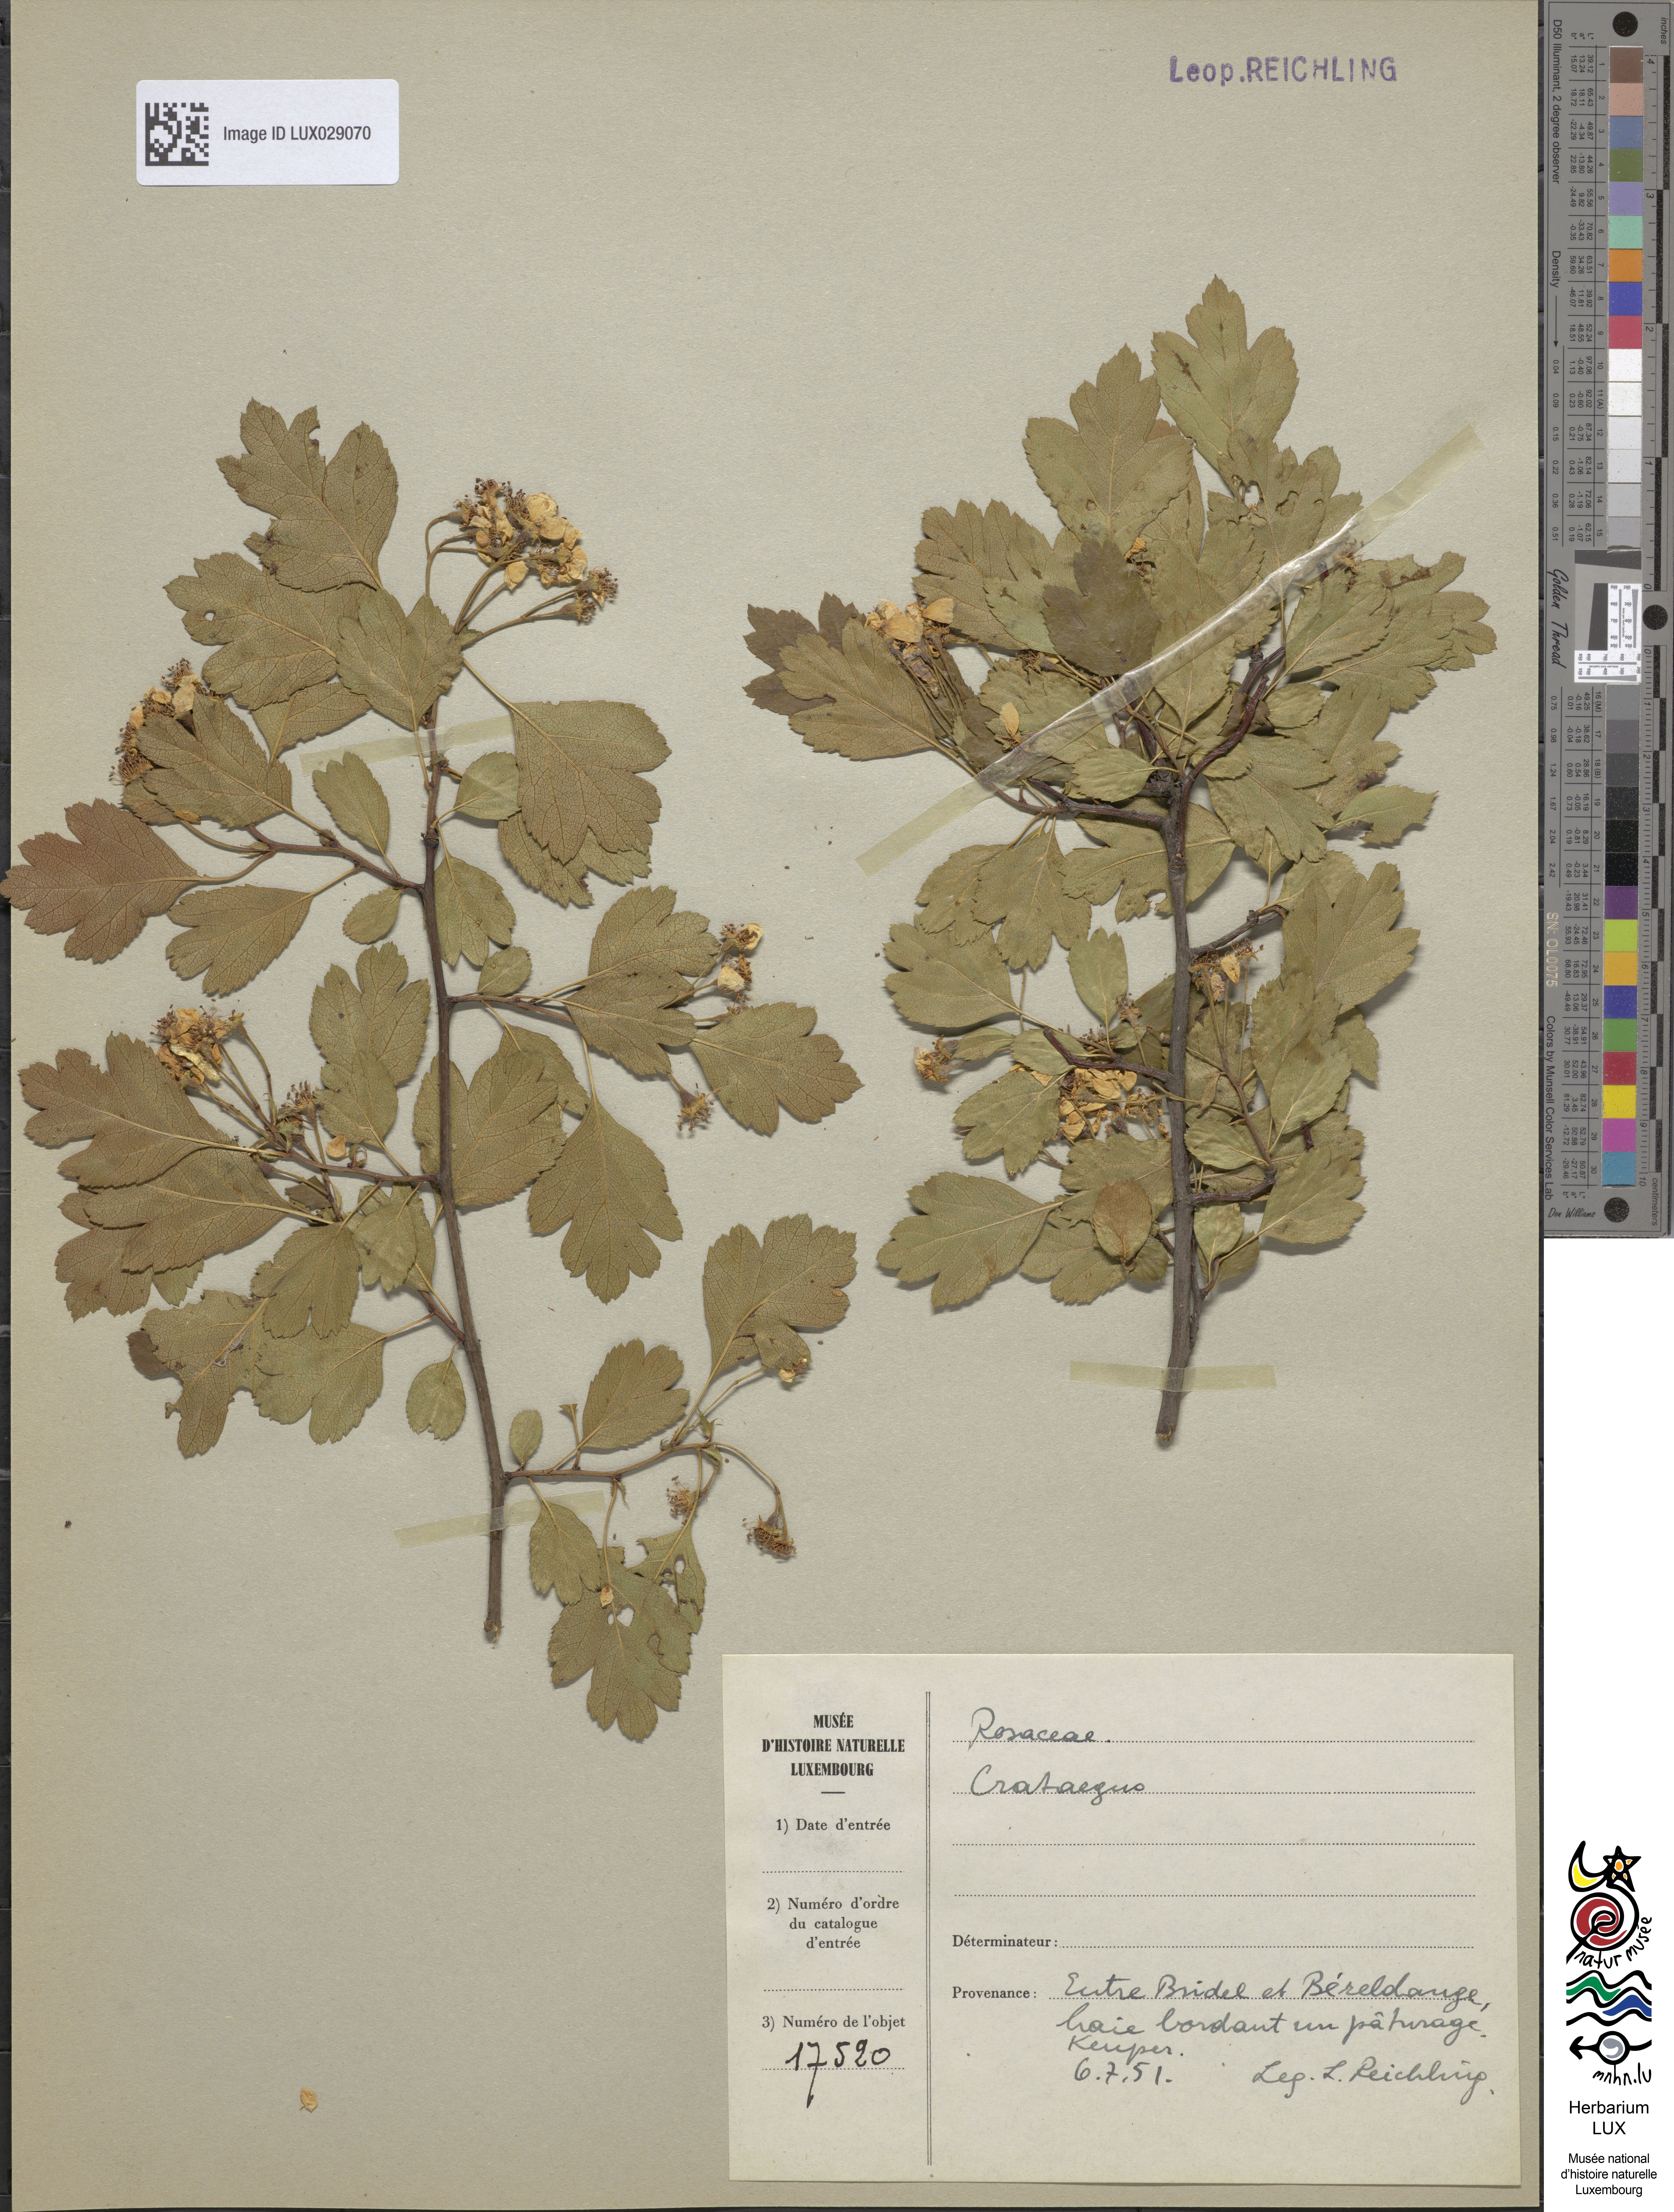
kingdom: Plantae
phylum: Tracheophyta
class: Magnoliopsida
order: Rosales
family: Rosaceae
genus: Crataegus
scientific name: Crataegus
